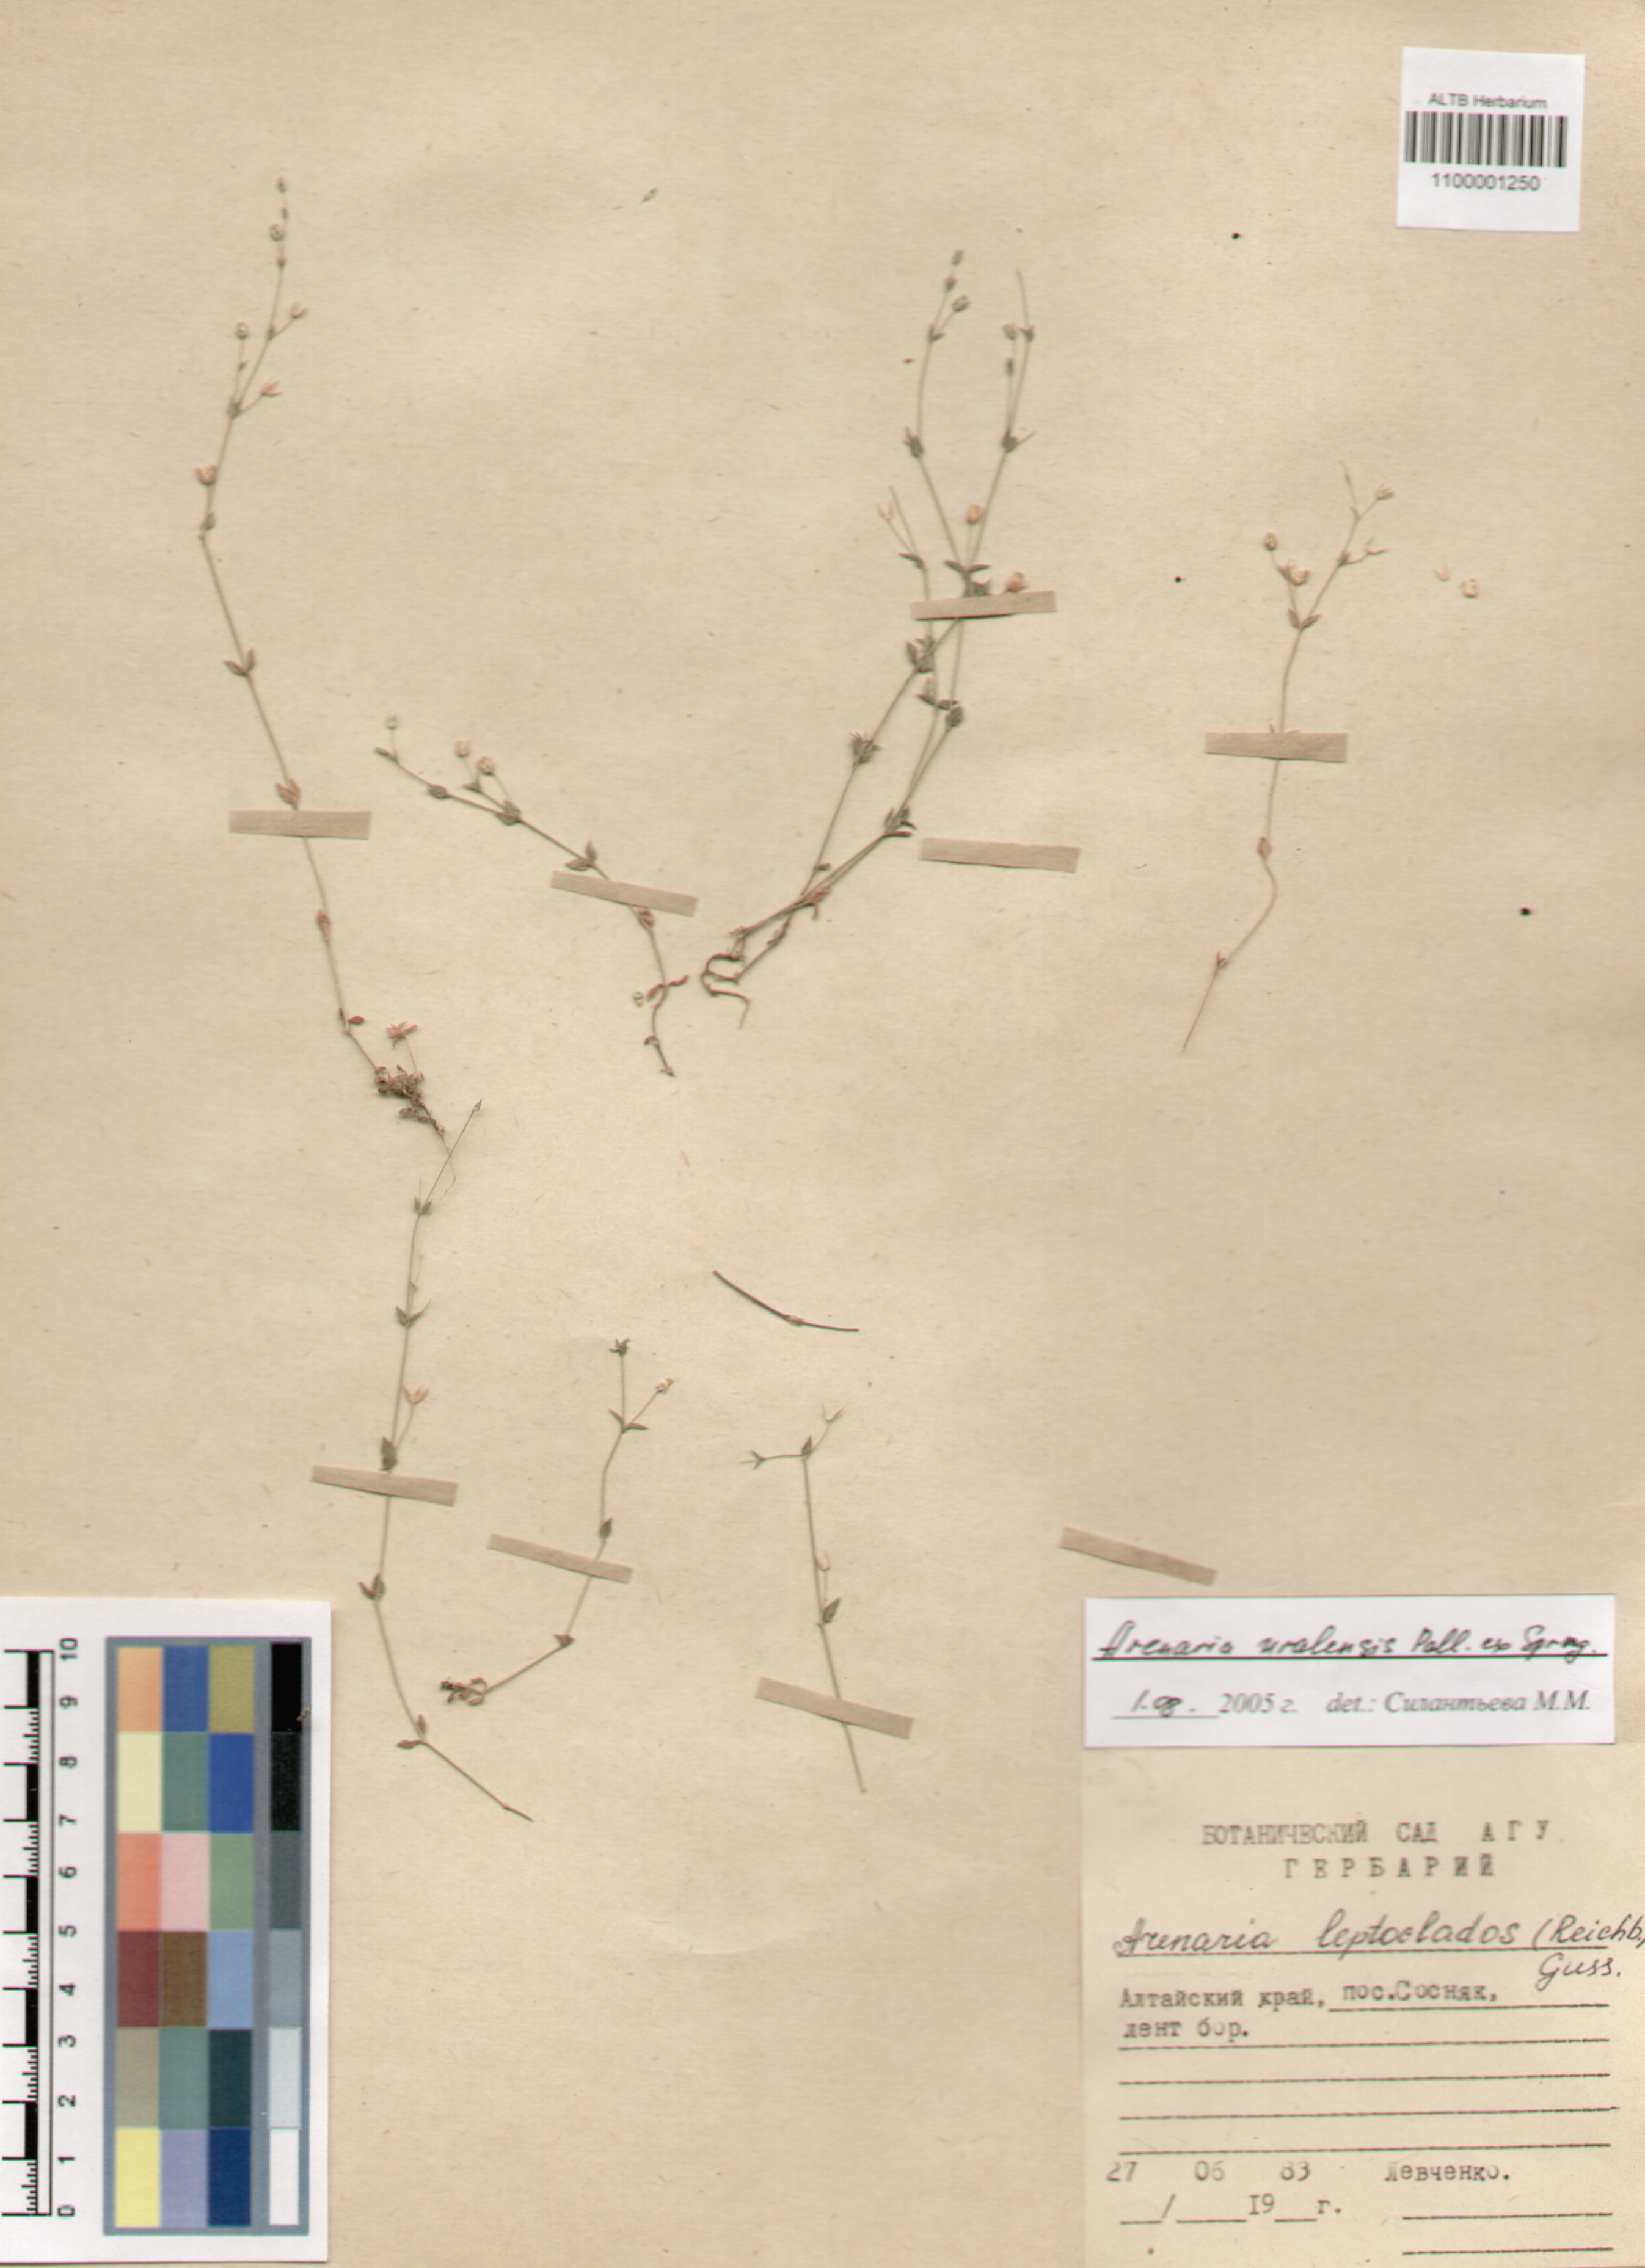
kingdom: Plantae
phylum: Tracheophyta
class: Magnoliopsida
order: Caryophyllales
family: Caryophyllaceae
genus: Arenaria
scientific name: Arenaria serpyllifolia
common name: Thyme-leaved sandwort
